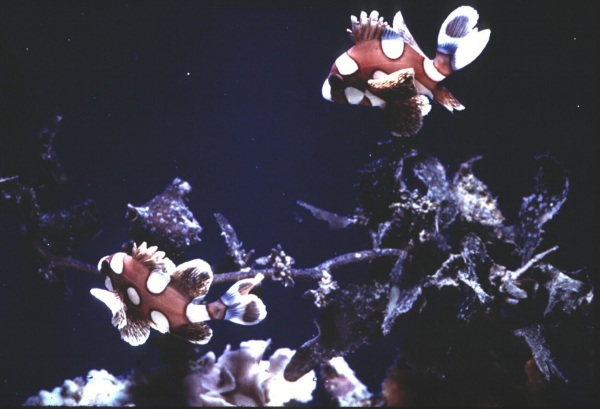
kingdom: Animalia
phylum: Chordata
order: Perciformes
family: Haemulidae
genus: Plectorhinchus
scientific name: Plectorhinchus chaetodonoides
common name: Harlequin sweetlips
